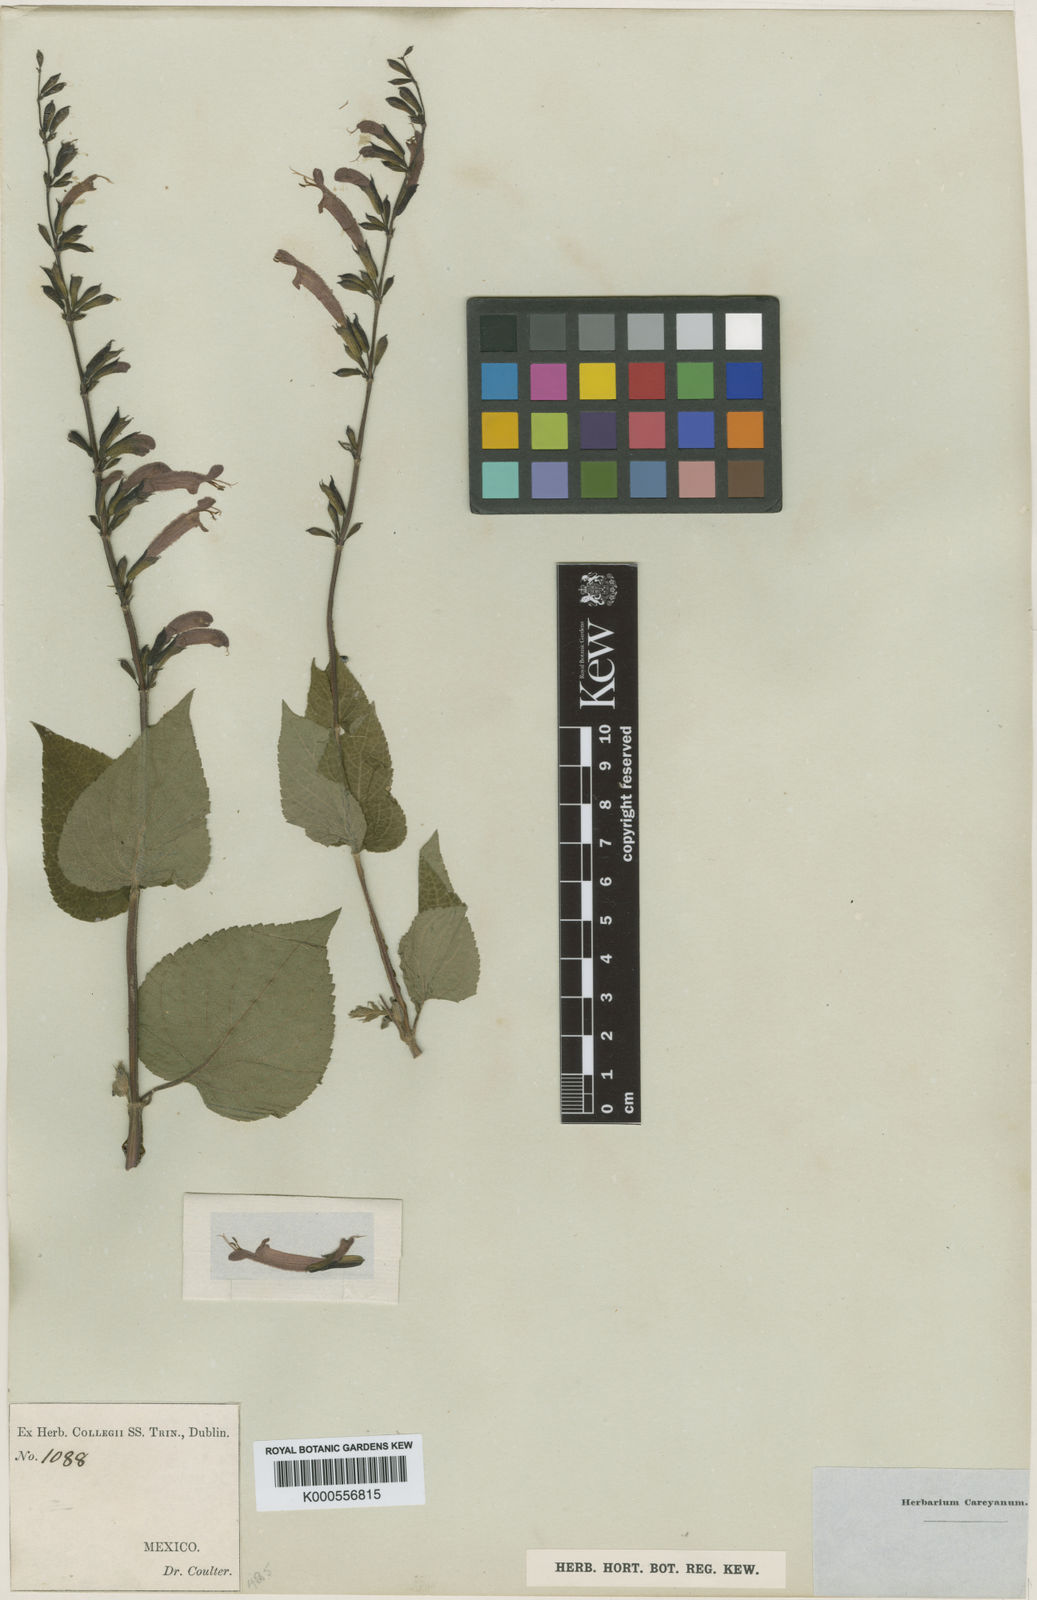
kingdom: Plantae
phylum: Tracheophyta
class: Magnoliopsida
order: Lamiales
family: Lamiaceae
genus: Salvia
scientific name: Salvia tubifera
